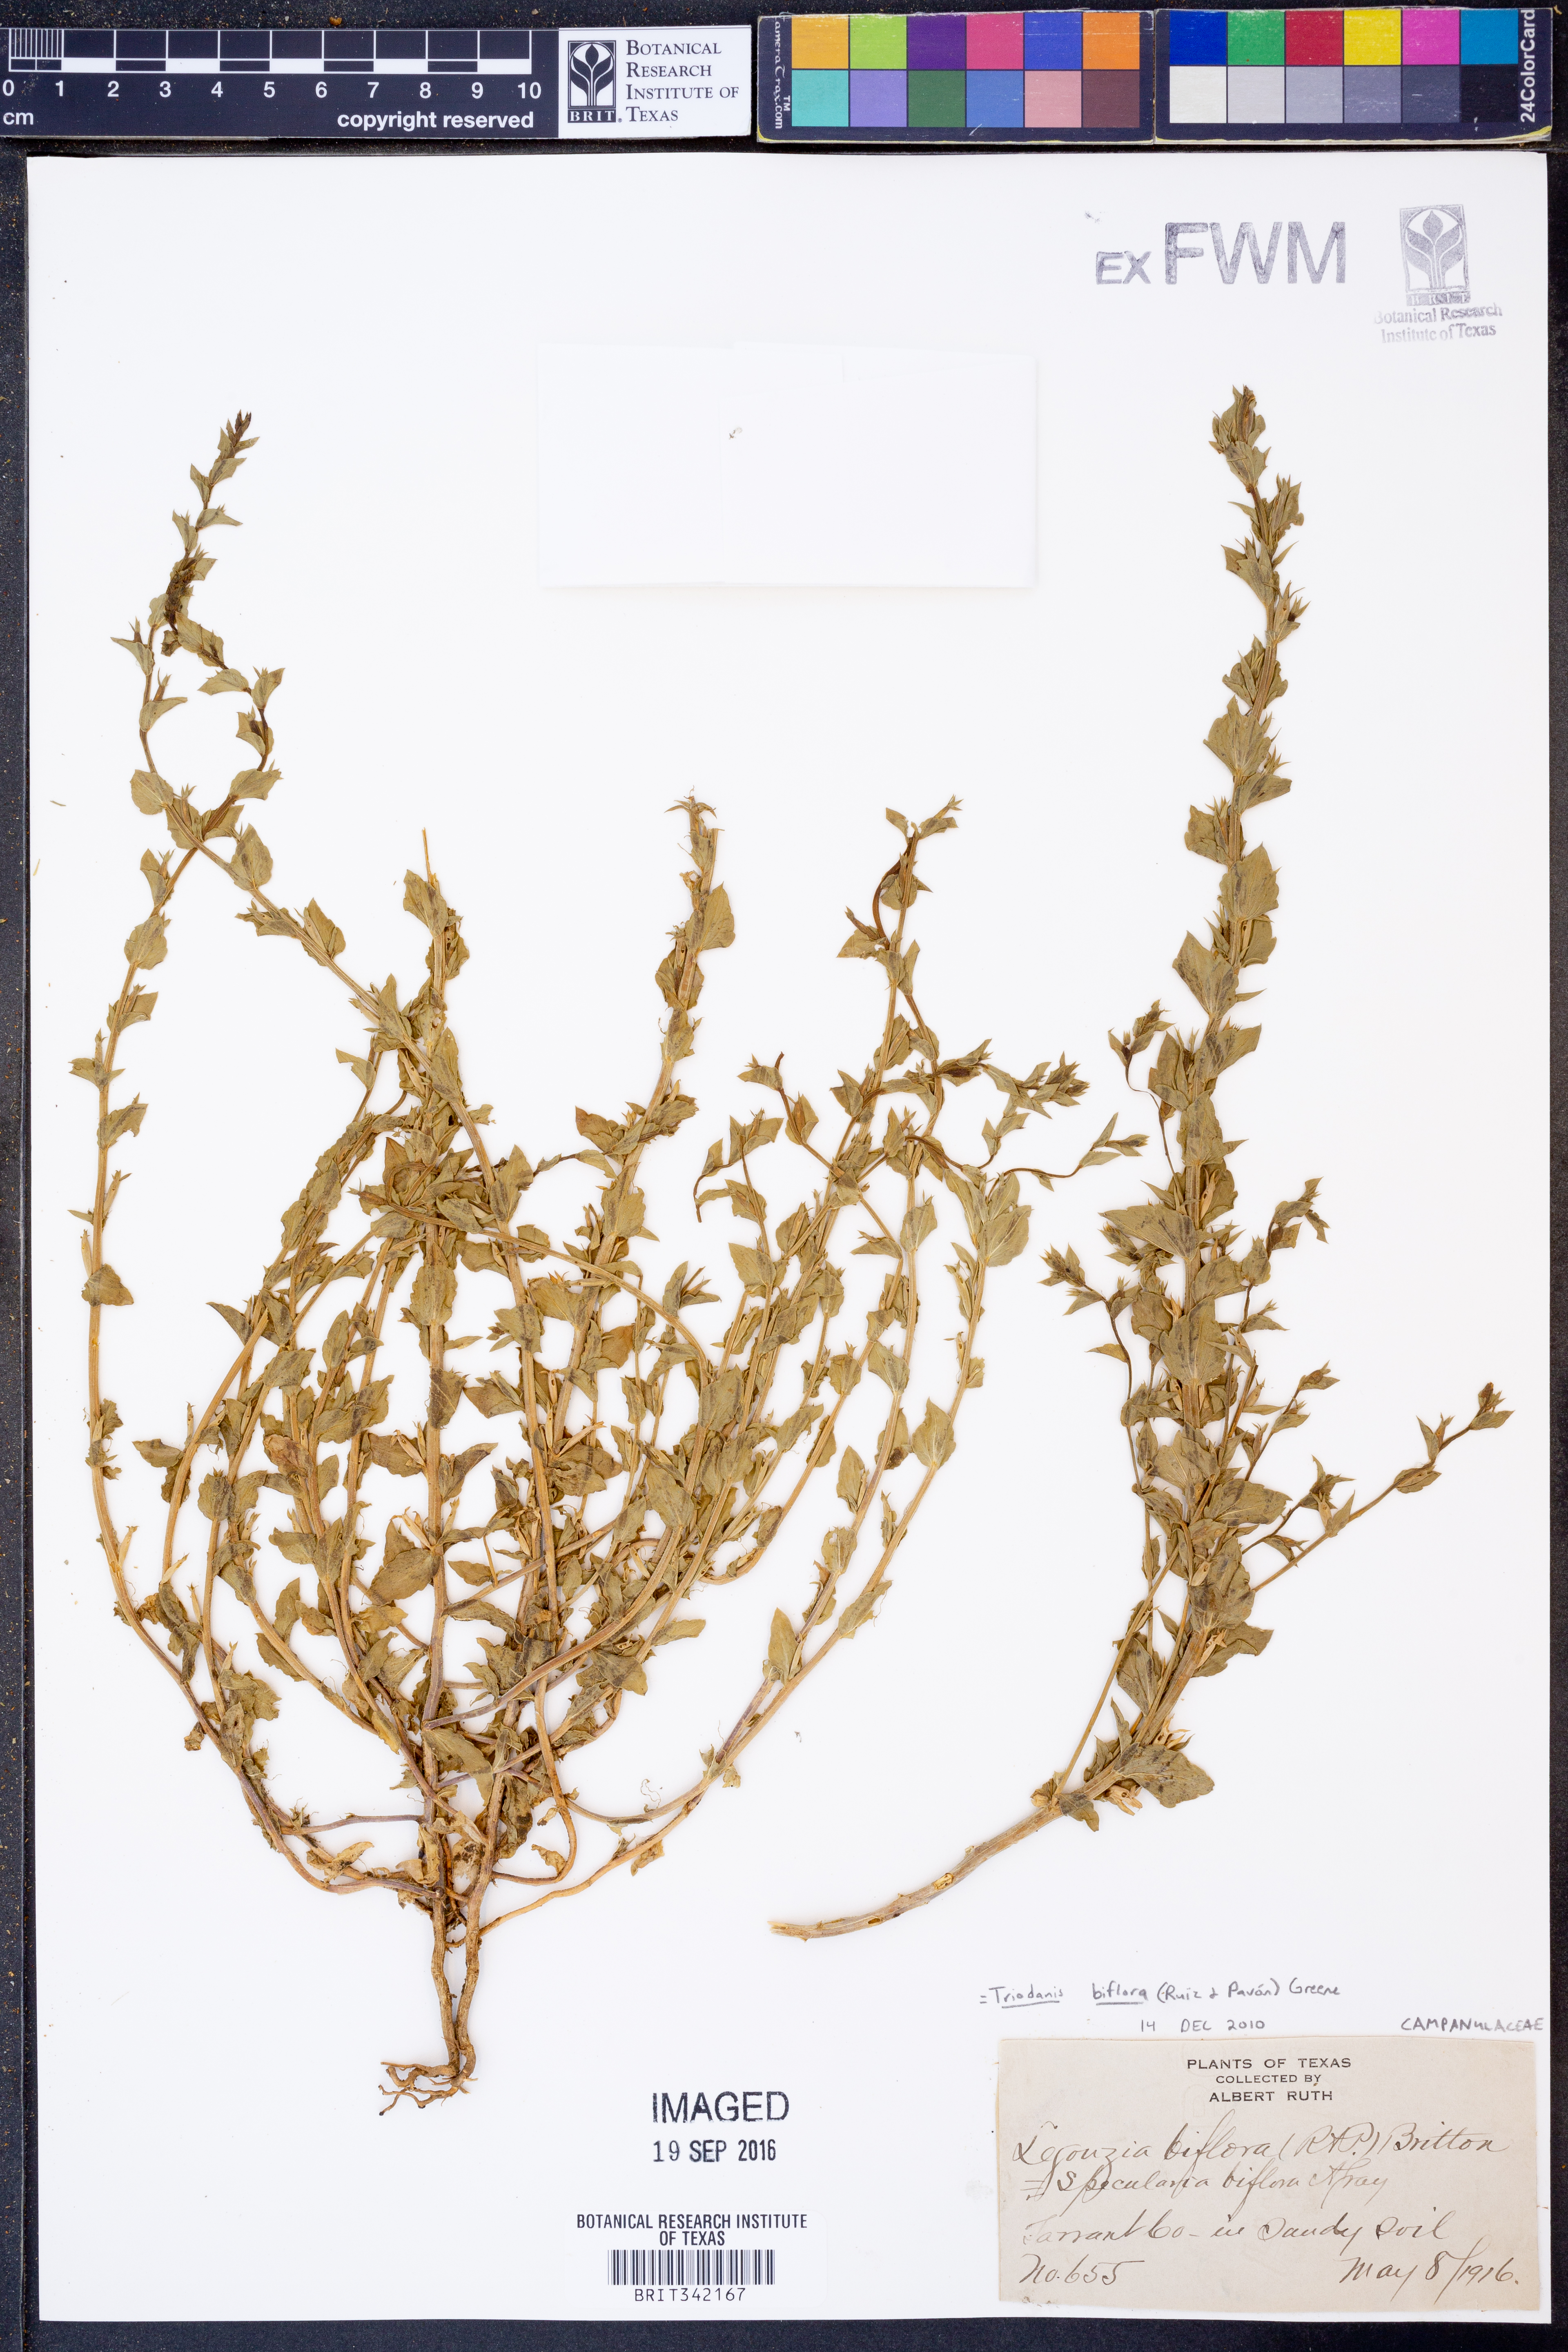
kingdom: Plantae
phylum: Tracheophyta
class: Magnoliopsida
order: Asterales
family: Campanulaceae
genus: Triodanis
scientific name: Triodanis perfoliata
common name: Clasping venus' looking-glass
